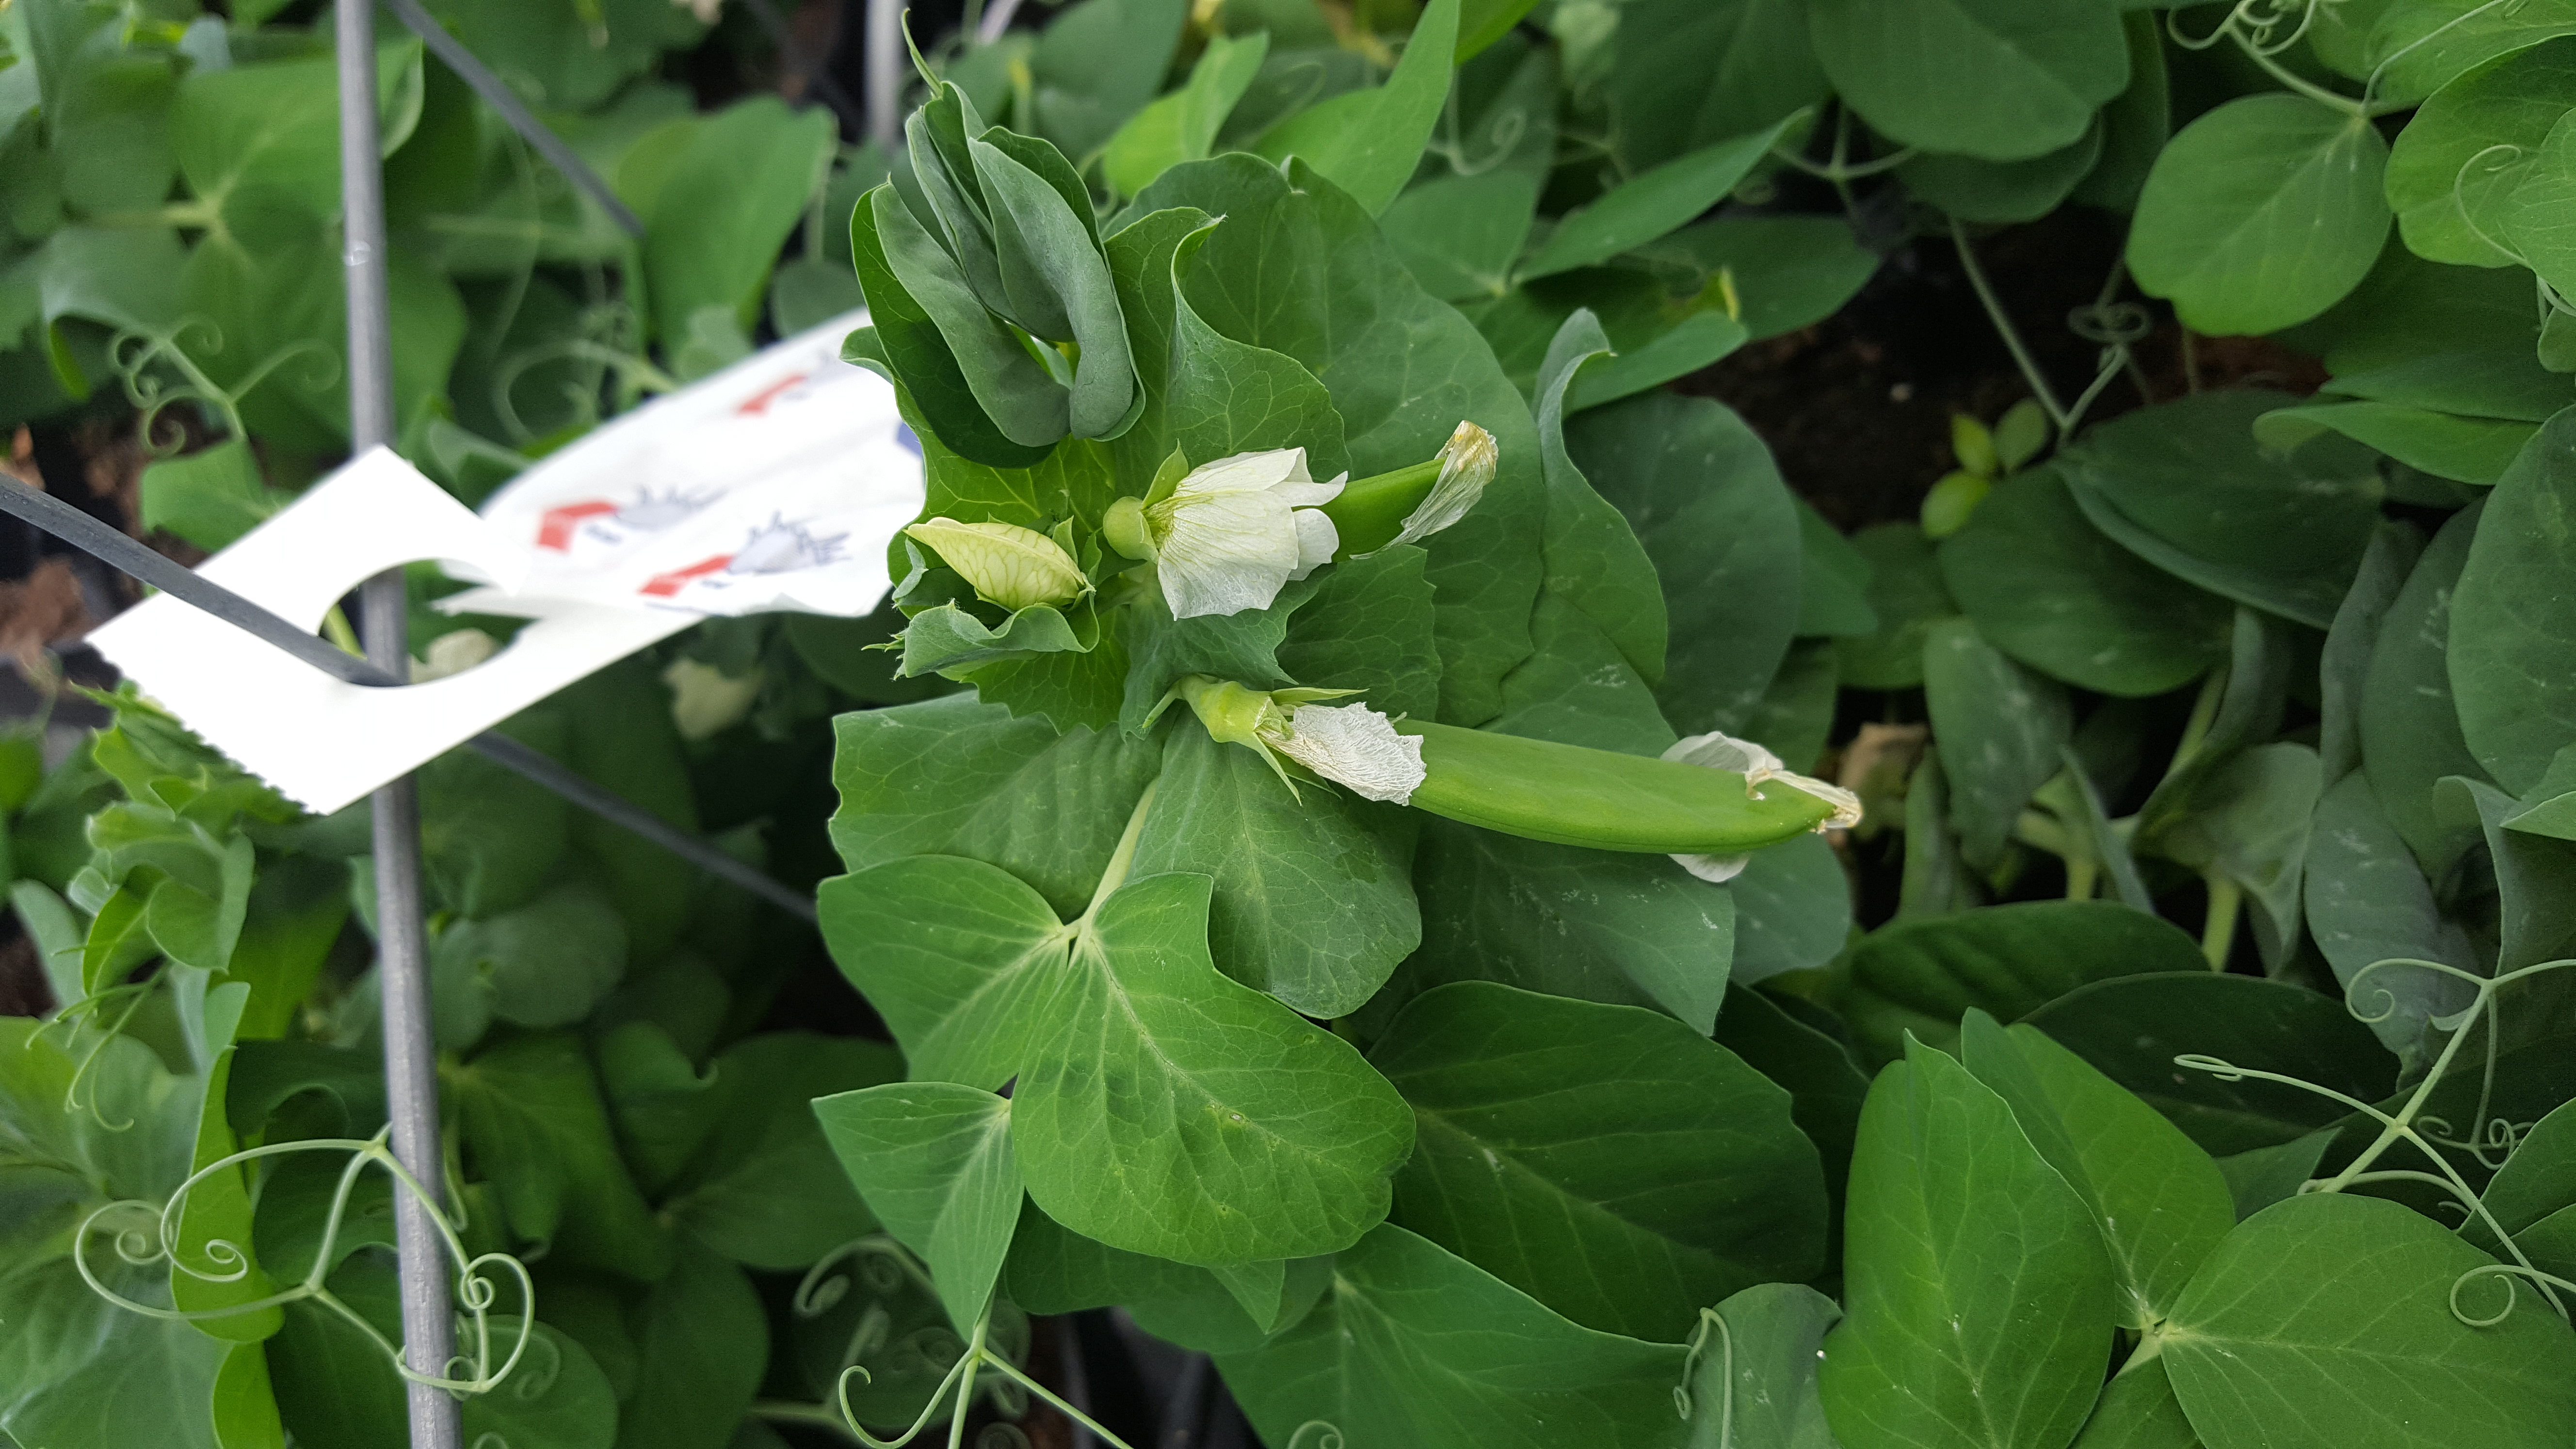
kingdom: Plantae
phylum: Tracheophyta
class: Magnoliopsida
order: Fabales
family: Fabaceae
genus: Lathyrus
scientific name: Lathyrus oleraceus
